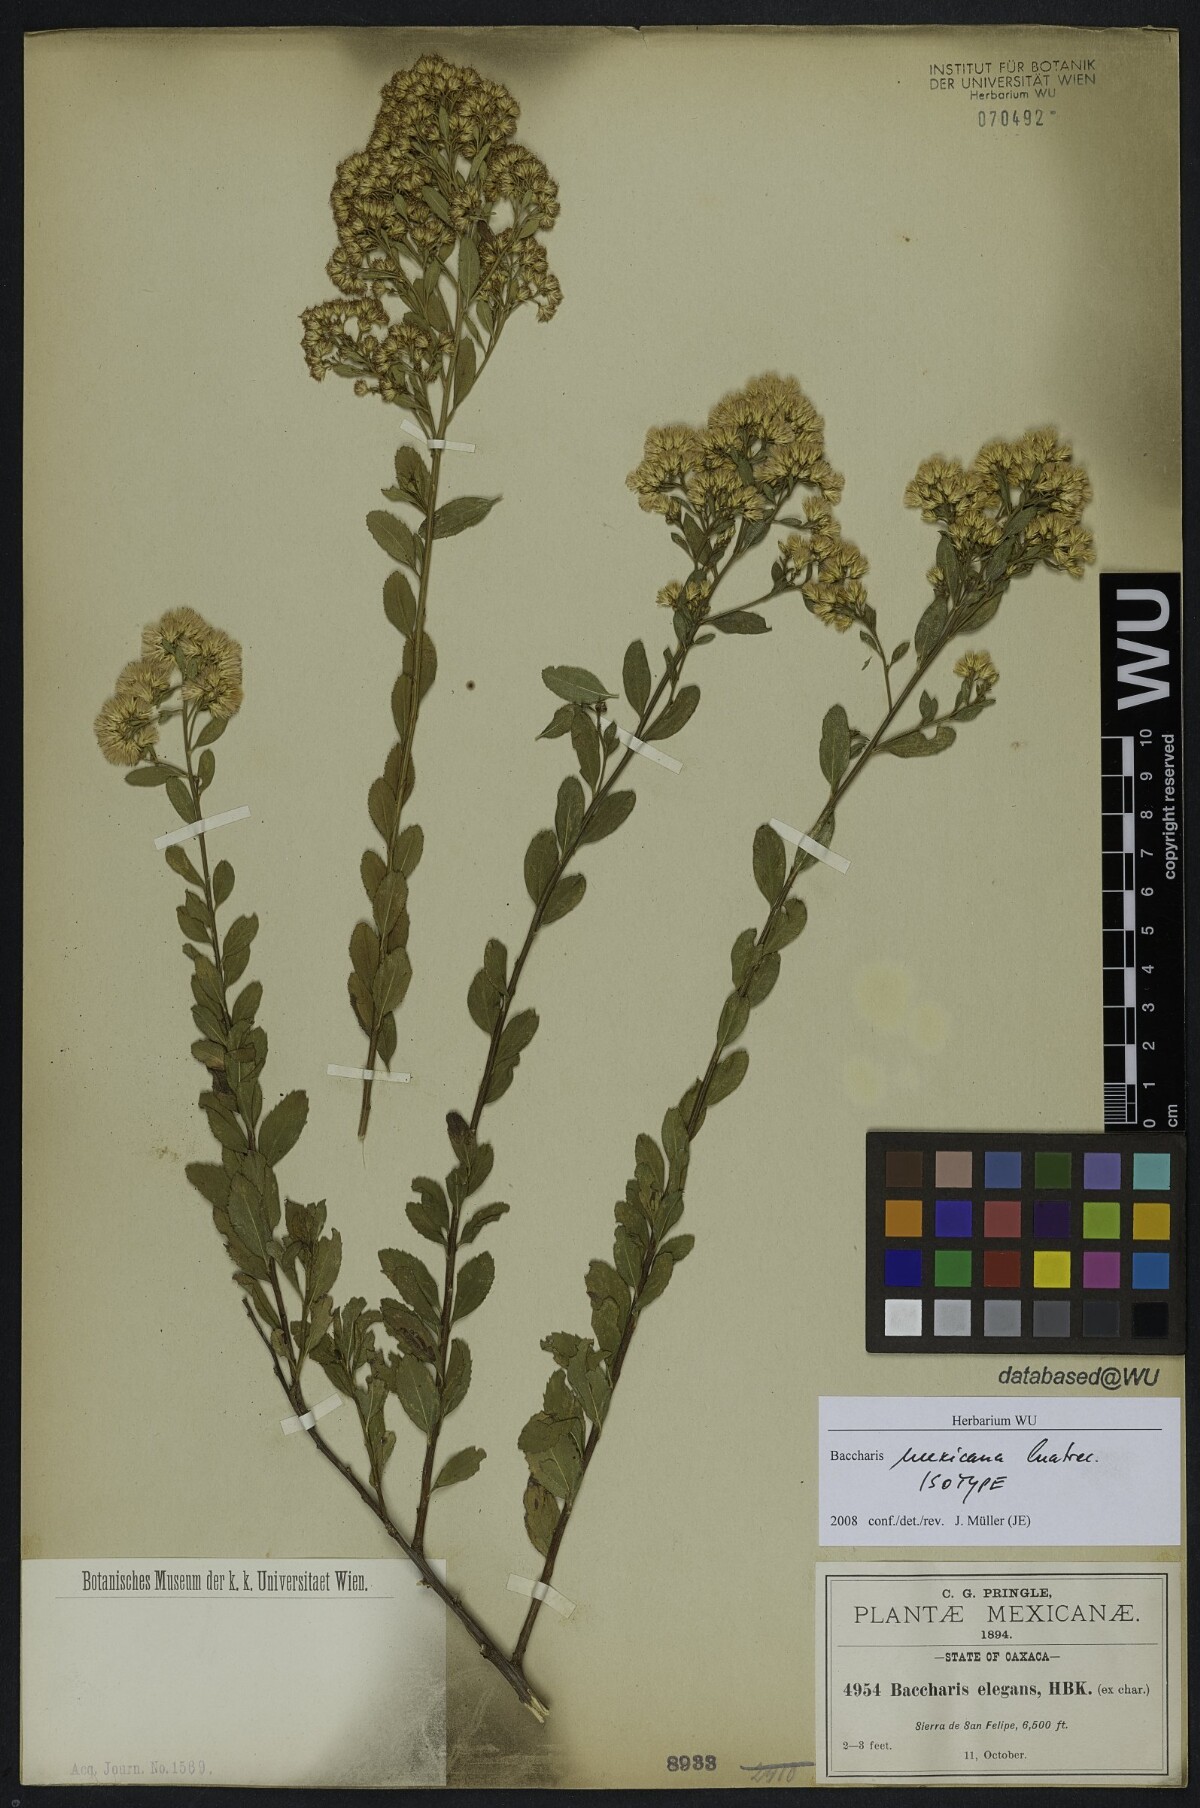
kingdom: Plantae
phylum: Tracheophyta
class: Magnoliopsida
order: Asterales
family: Asteraceae
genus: Baccharis
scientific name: Baccharis mexicana
